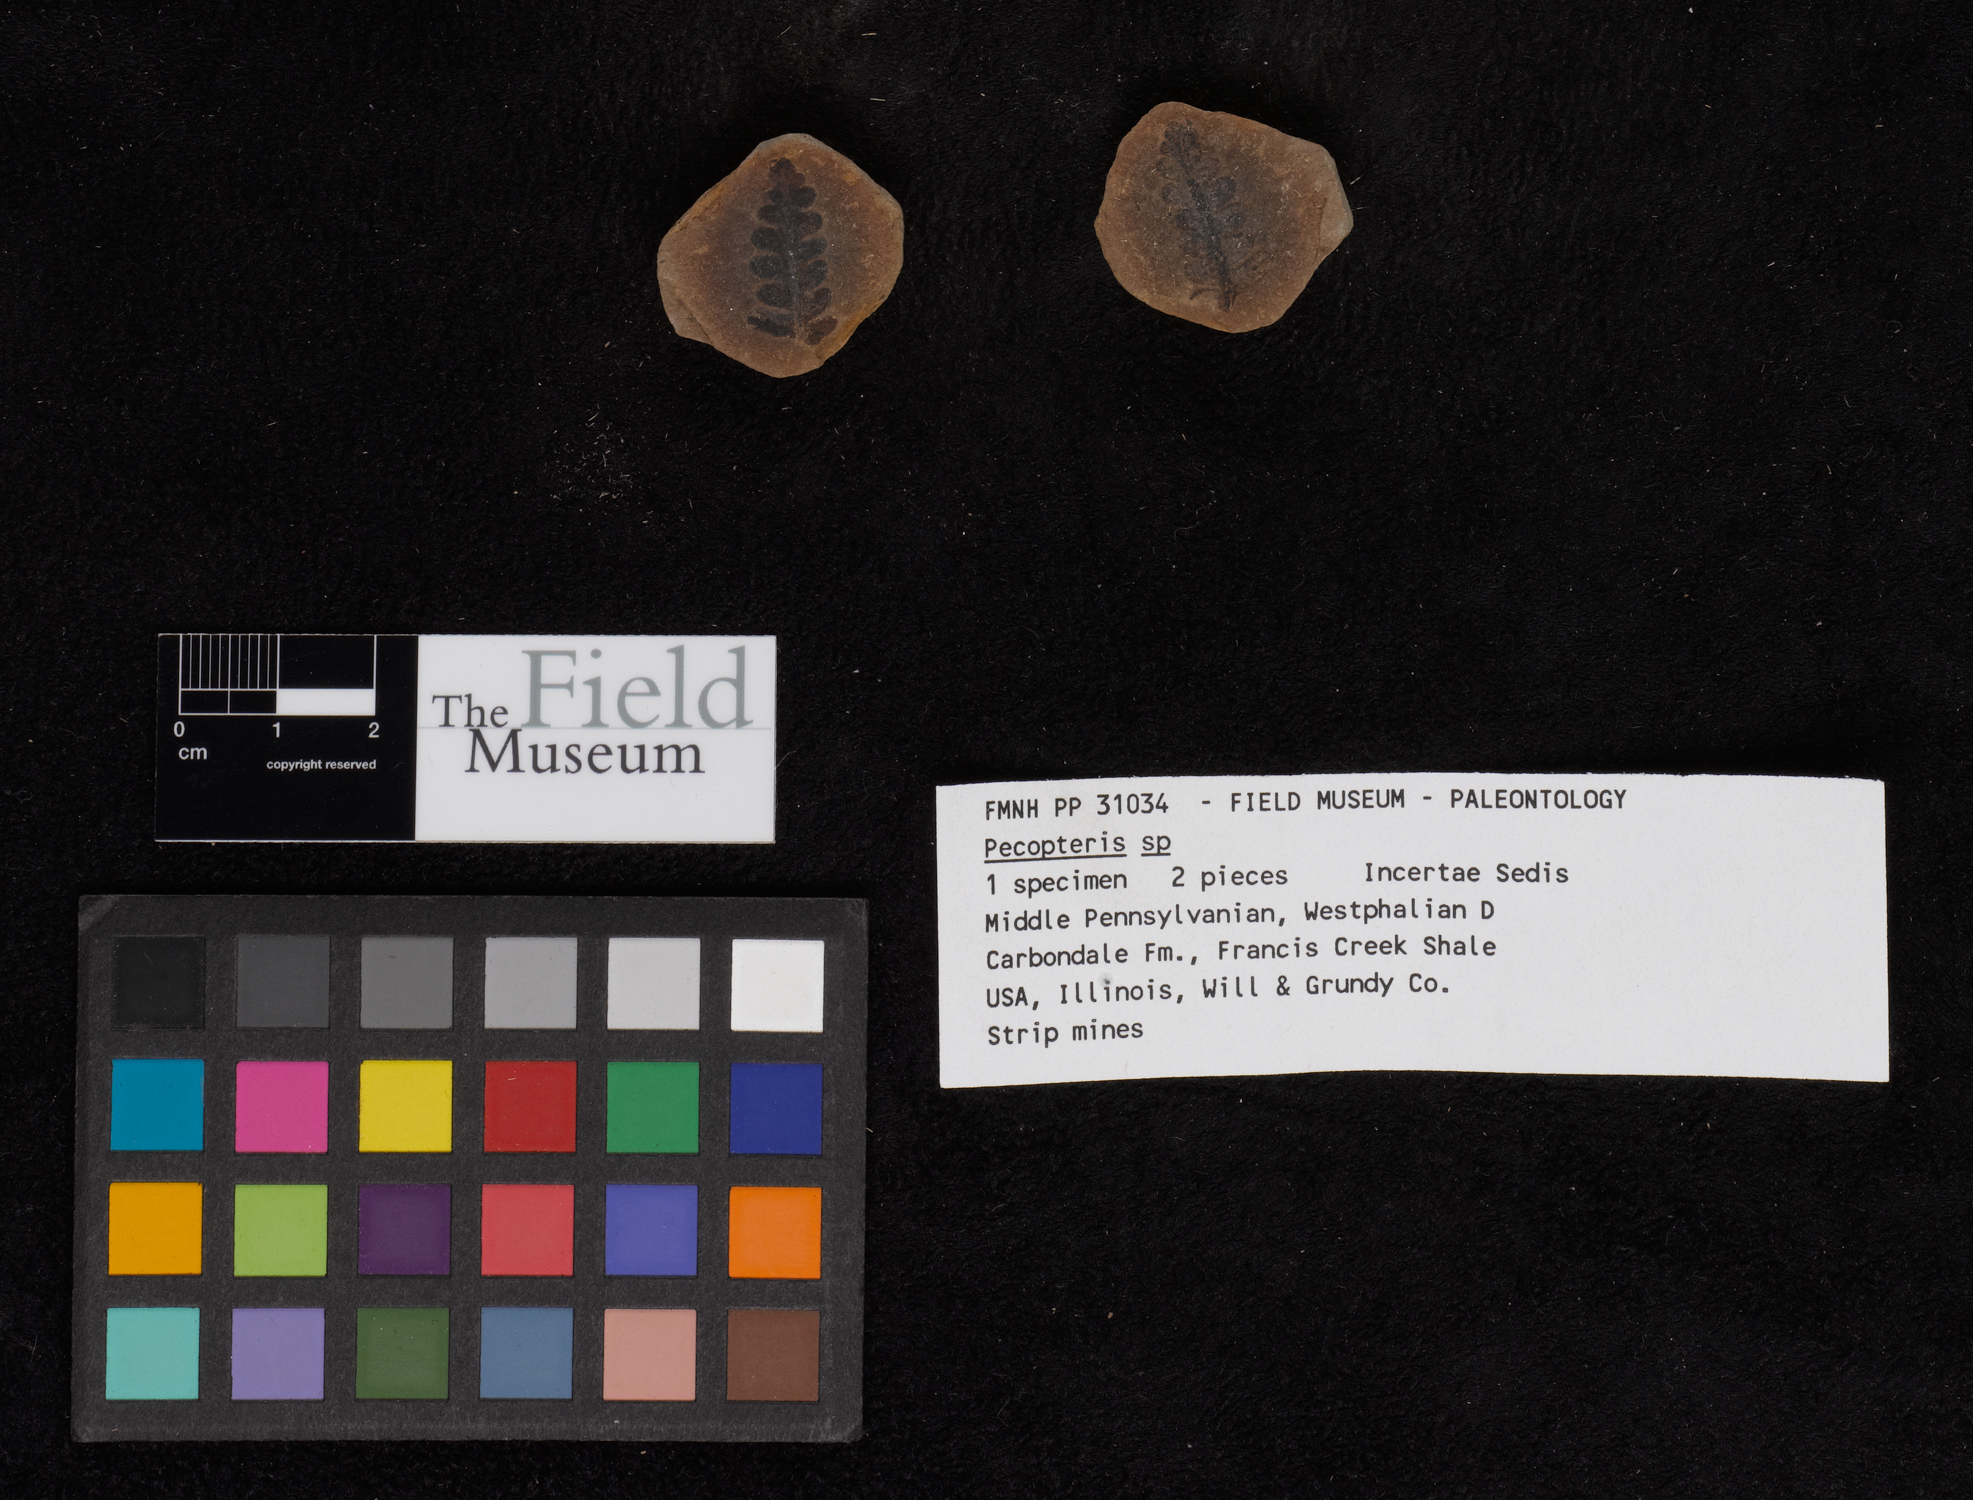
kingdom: Plantae
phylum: Tracheophyta
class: Polypodiopsida
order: Marattiales
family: Asterothecaceae
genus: Pecopteris
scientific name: Pecopteris
